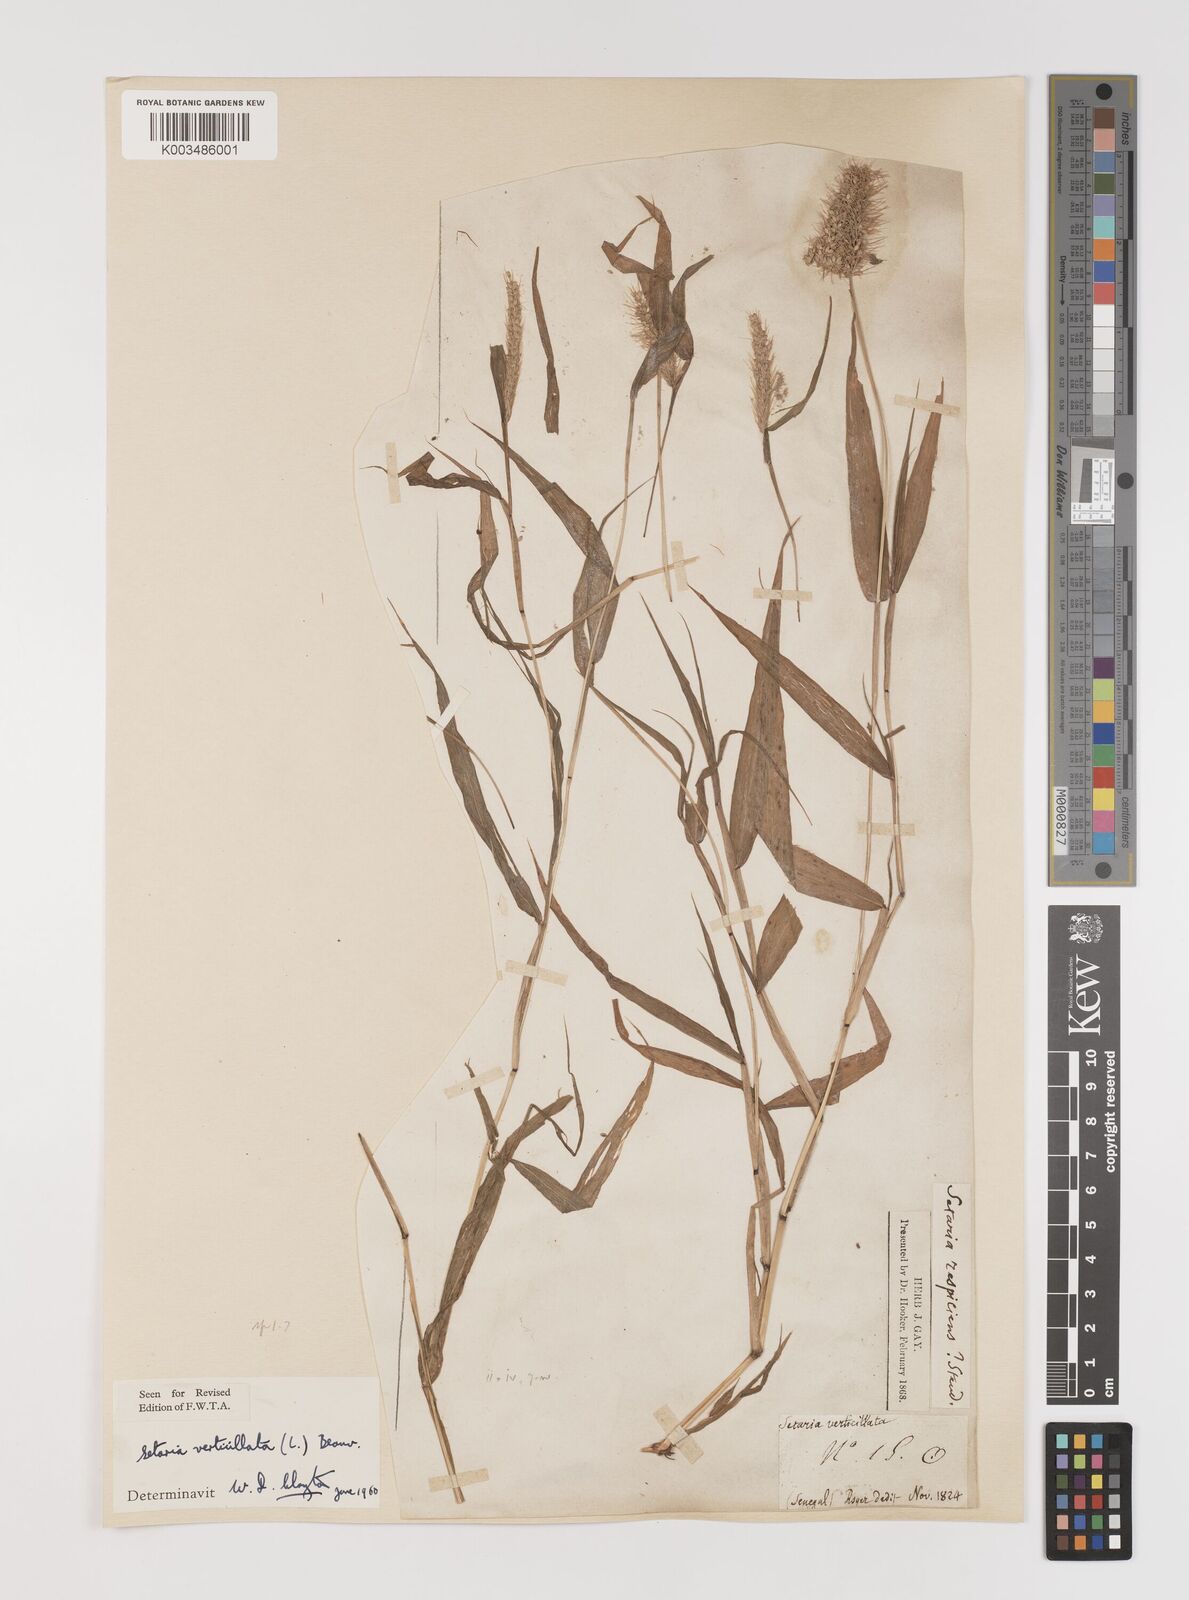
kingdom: Plantae
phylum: Tracheophyta
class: Liliopsida
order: Poales
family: Poaceae
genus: Setaria
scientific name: Setaria verticillata
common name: Hooked bristlegrass
